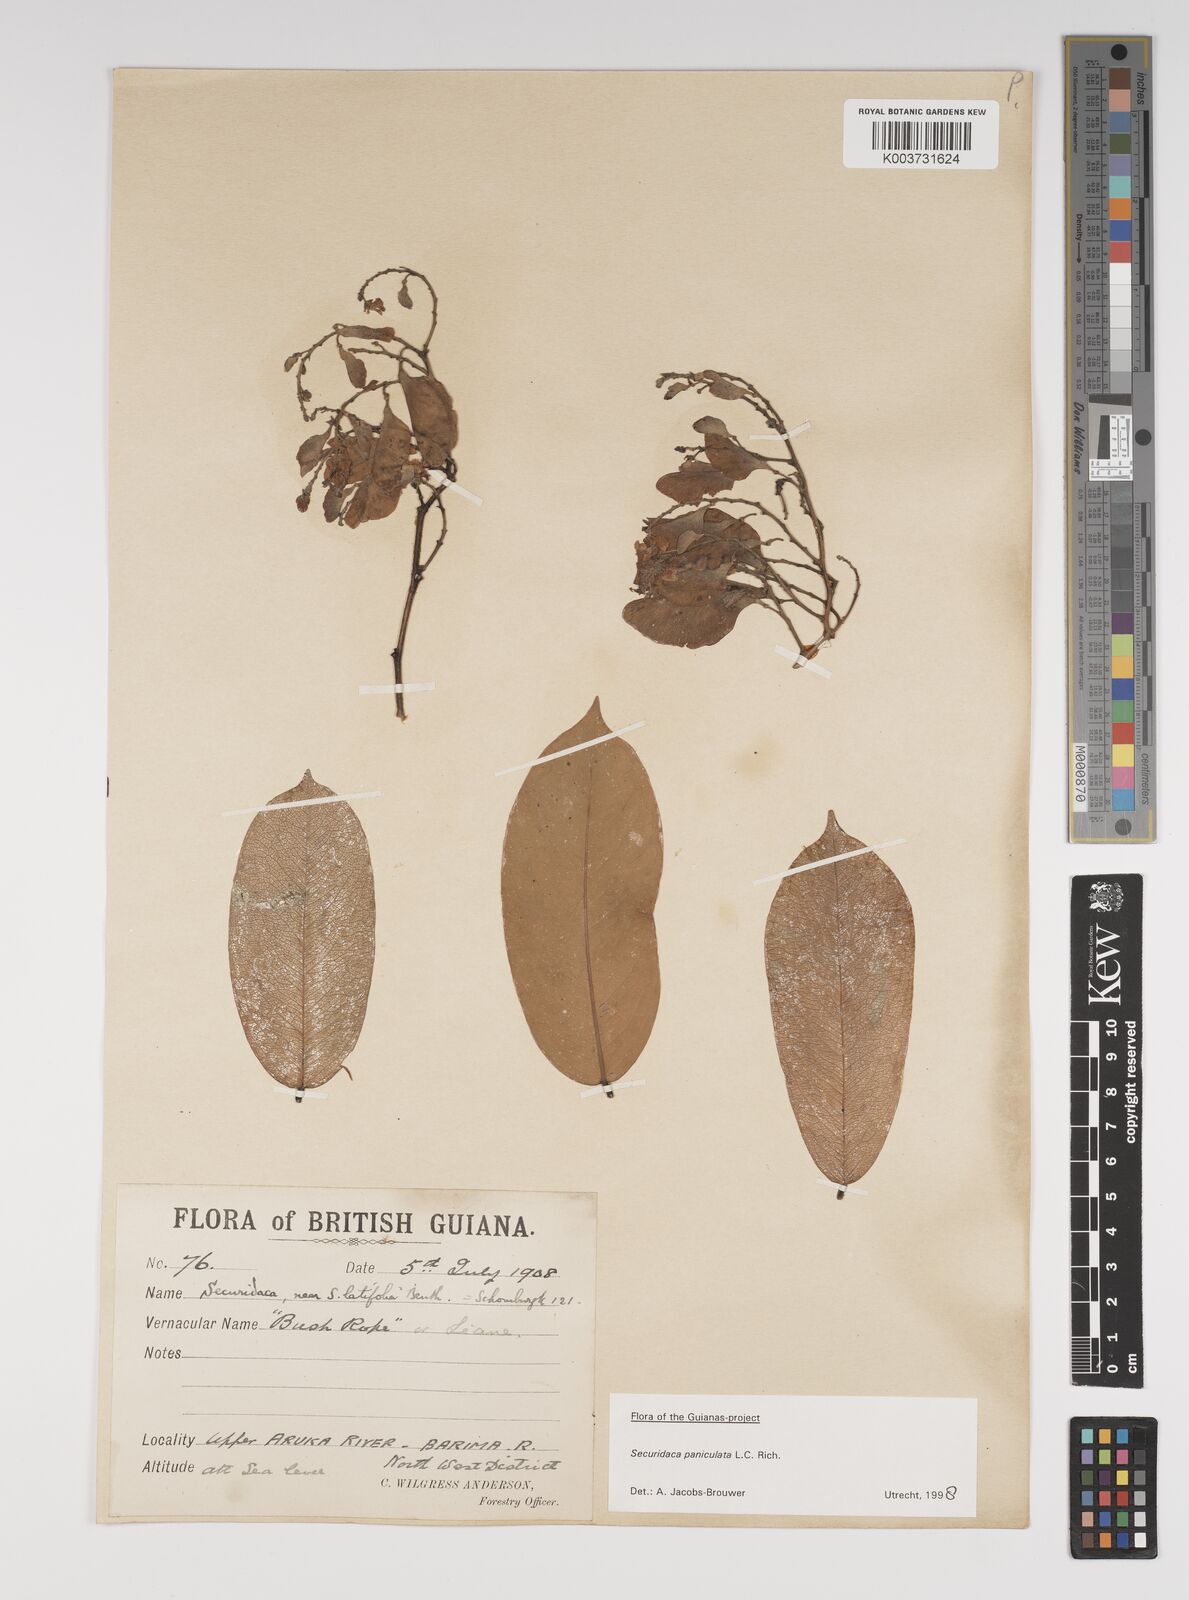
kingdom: Plantae
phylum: Tracheophyta
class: Magnoliopsida
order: Fabales
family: Polygalaceae
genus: Securidaca
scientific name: Securidaca paniculata
